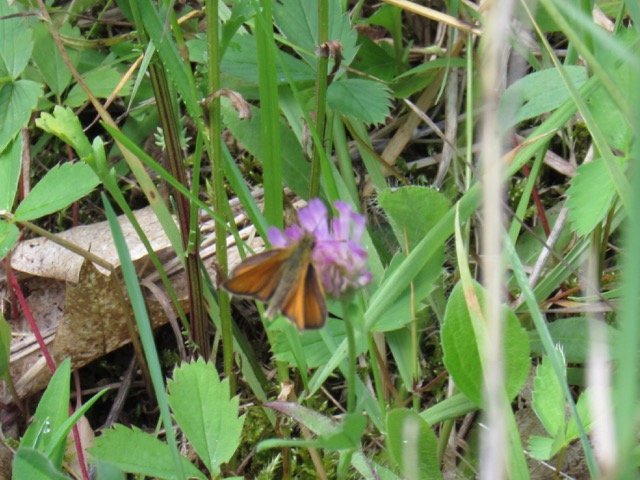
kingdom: Animalia
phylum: Arthropoda
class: Insecta
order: Lepidoptera
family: Hesperiidae
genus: Thymelicus
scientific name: Thymelicus lineola
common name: European Skipper
